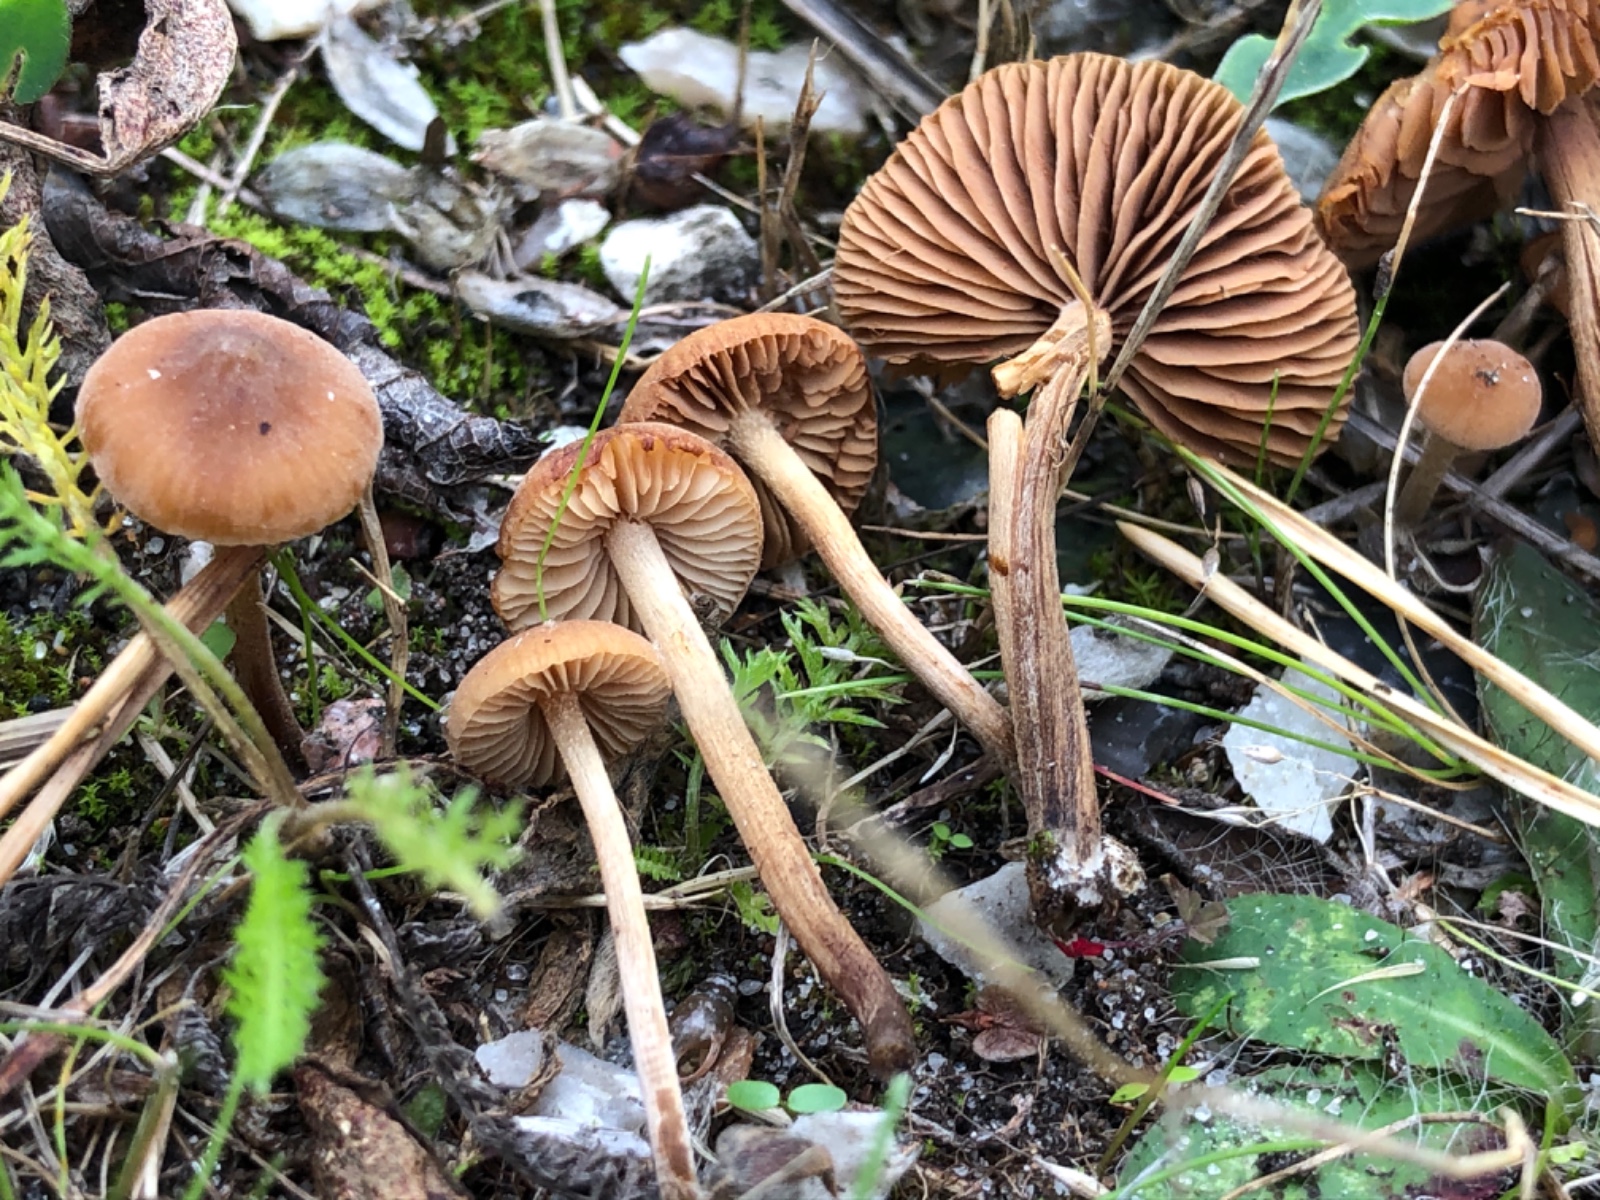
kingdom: Fungi
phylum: Basidiomycota
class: Agaricomycetes
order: Agaricales
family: Hymenogastraceae
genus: Naucoria
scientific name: Naucoria amarescens
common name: bitter knaphat
